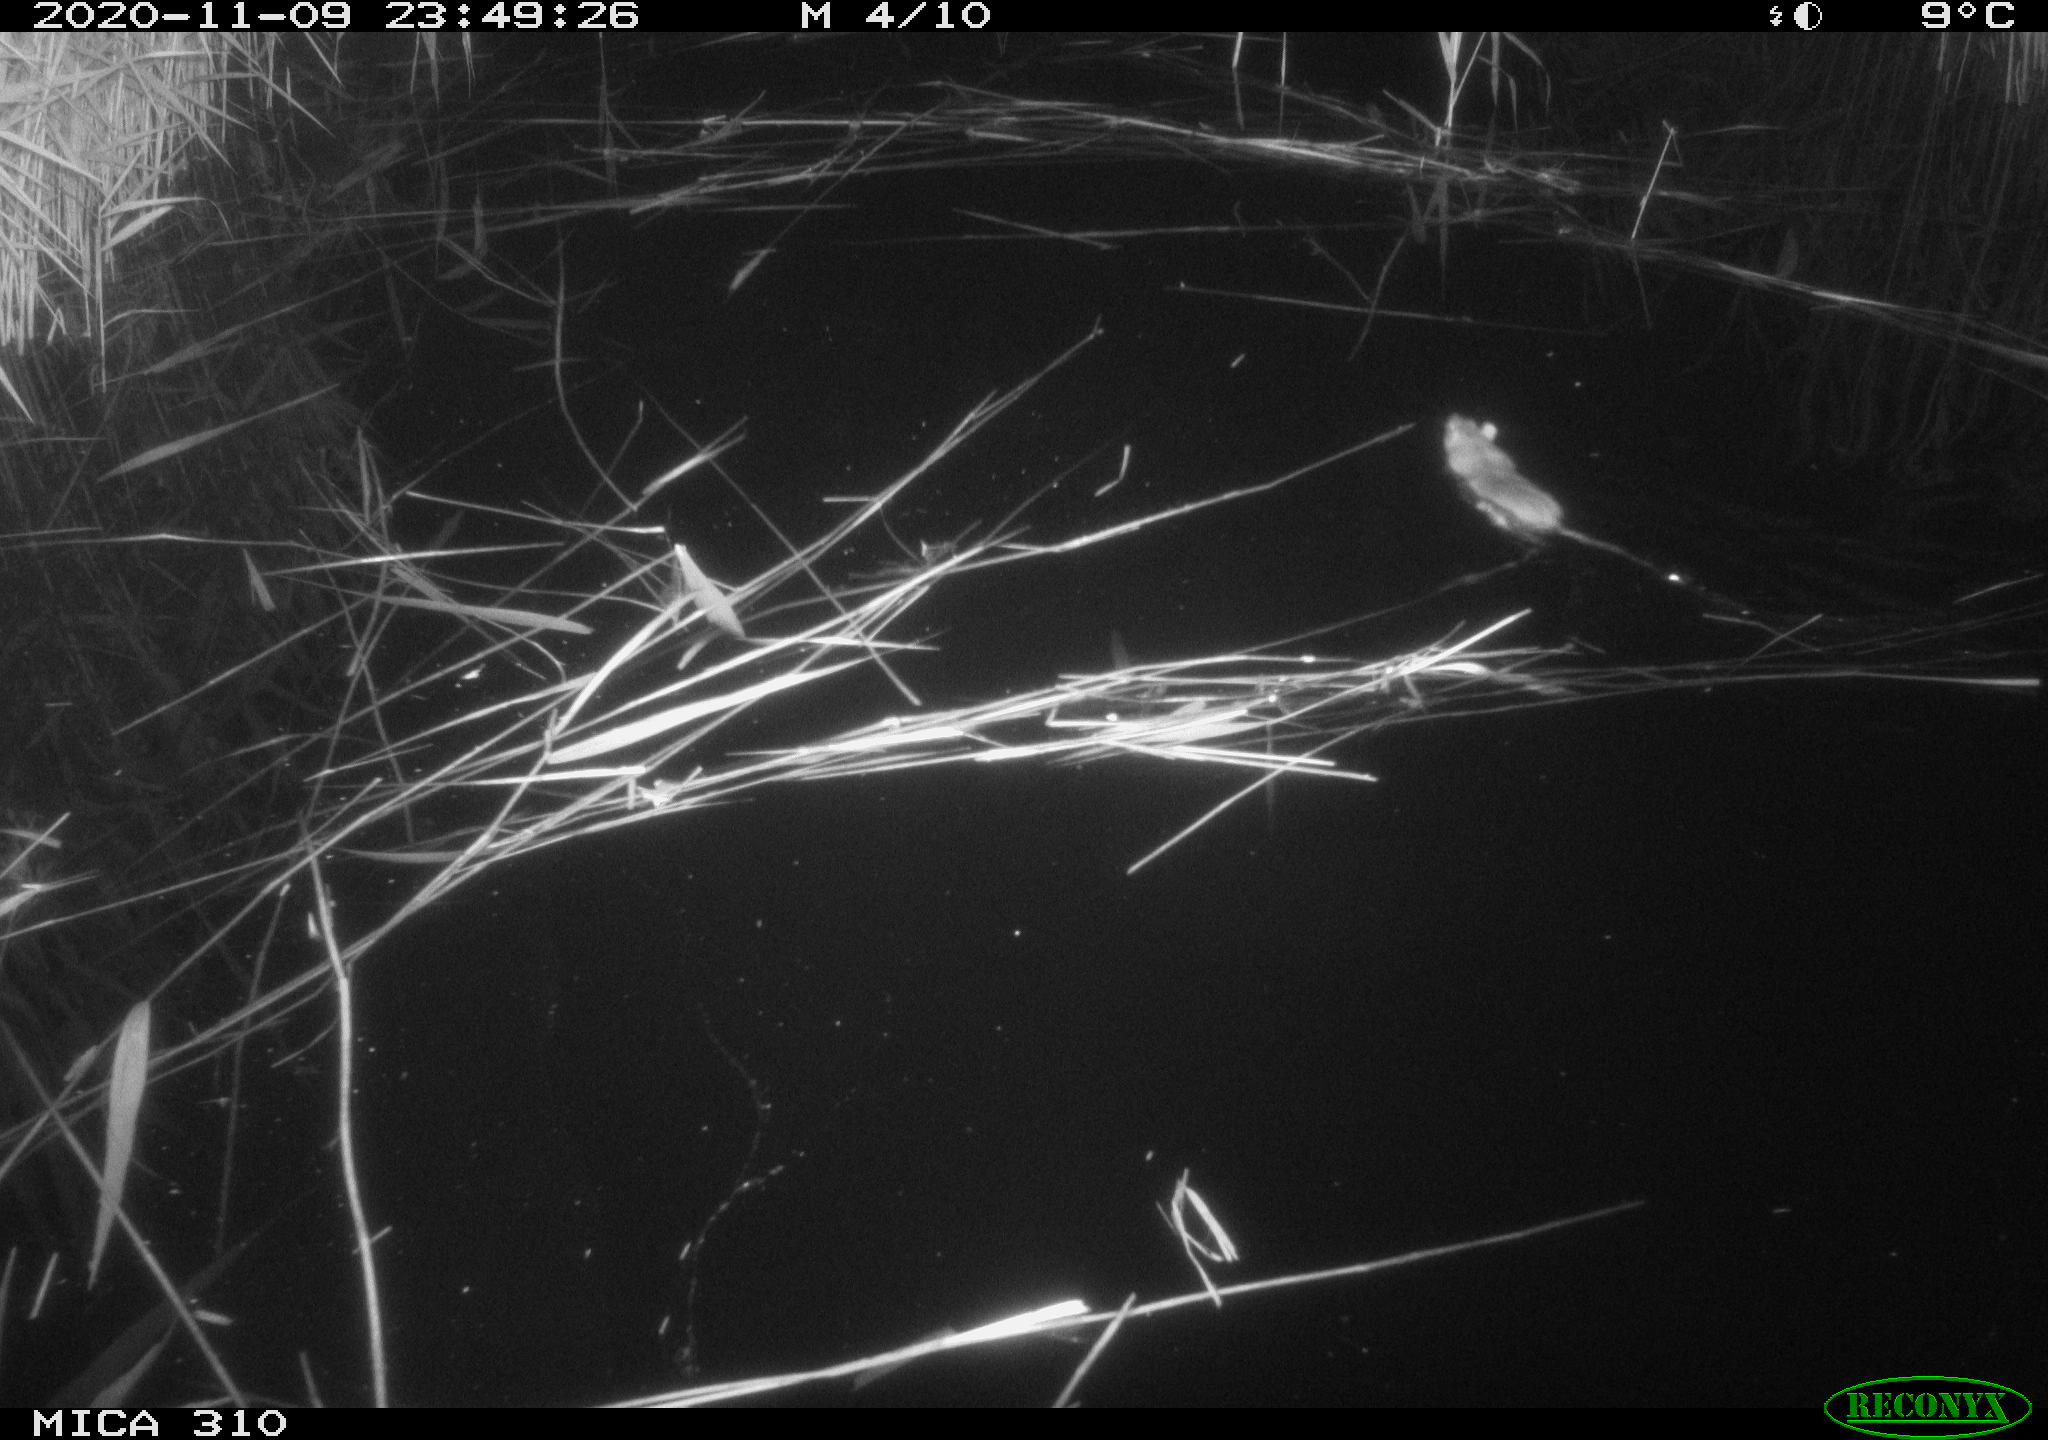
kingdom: Animalia
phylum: Chordata
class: Mammalia
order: Rodentia
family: Muridae
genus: Rattus
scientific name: Rattus norvegicus
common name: Brown rat
